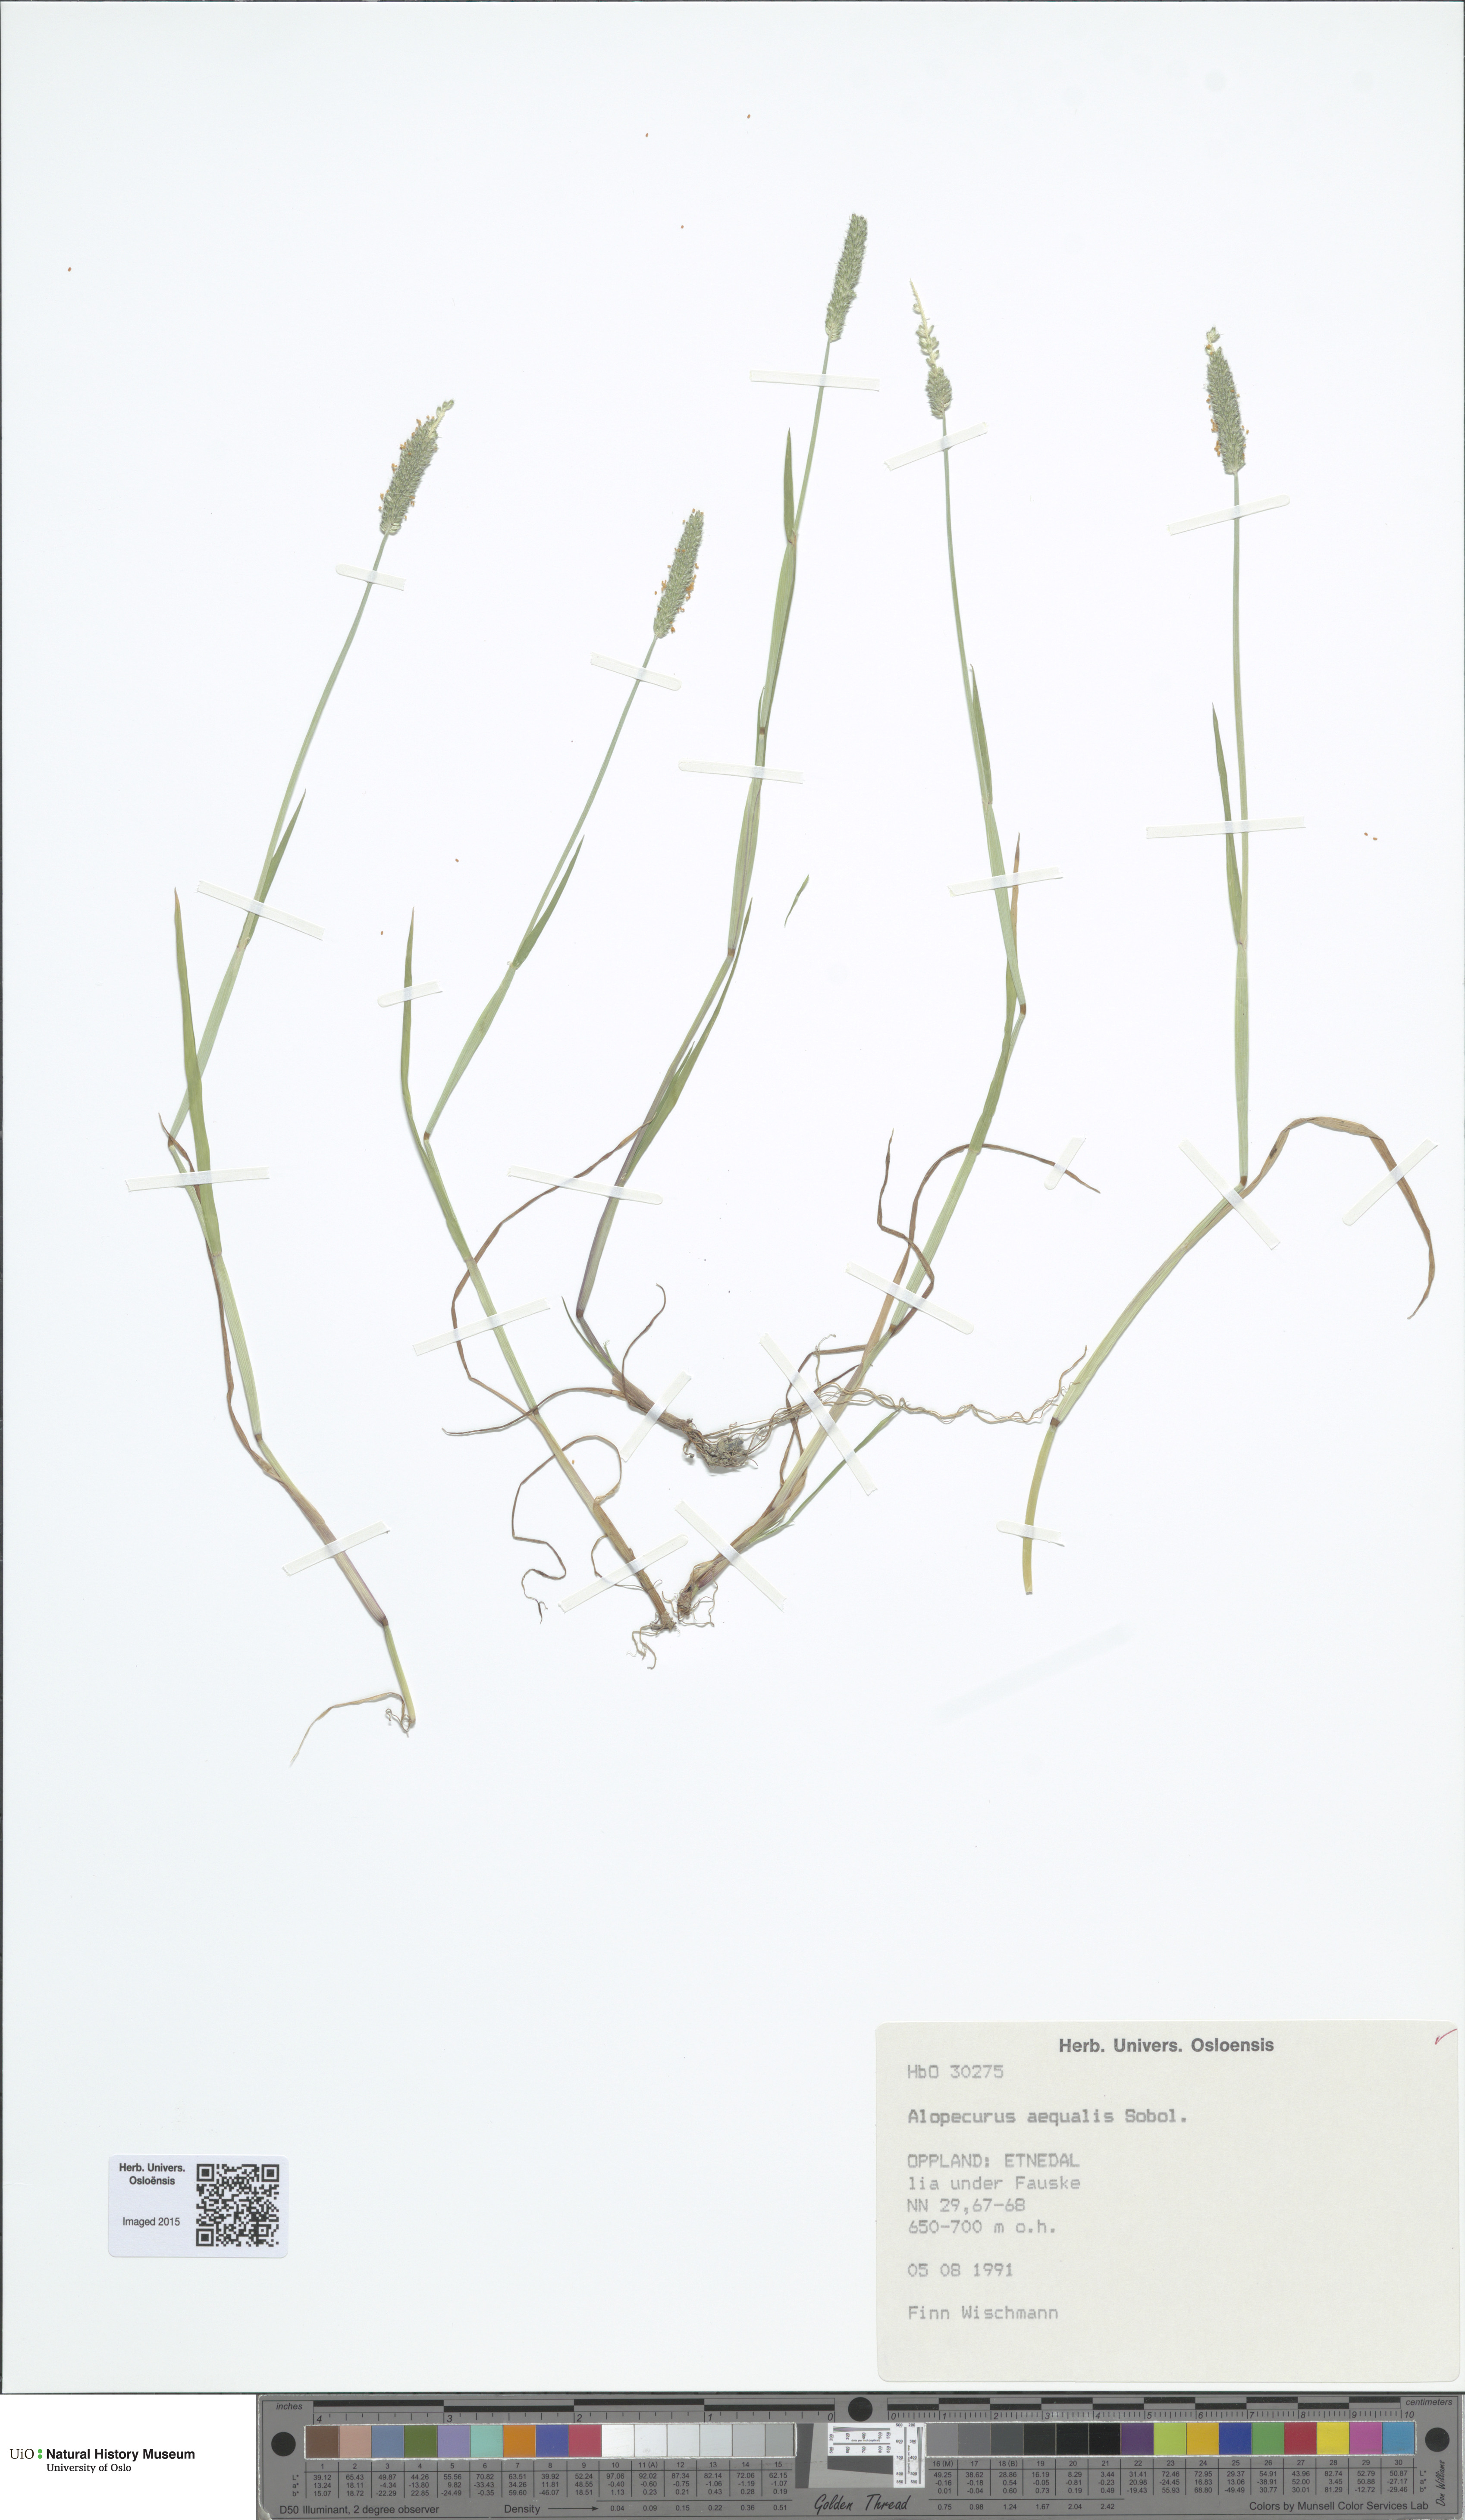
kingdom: Plantae
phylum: Tracheophyta
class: Liliopsida
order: Poales
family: Poaceae
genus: Alopecurus
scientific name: Alopecurus aequalis
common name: Orange foxtail
